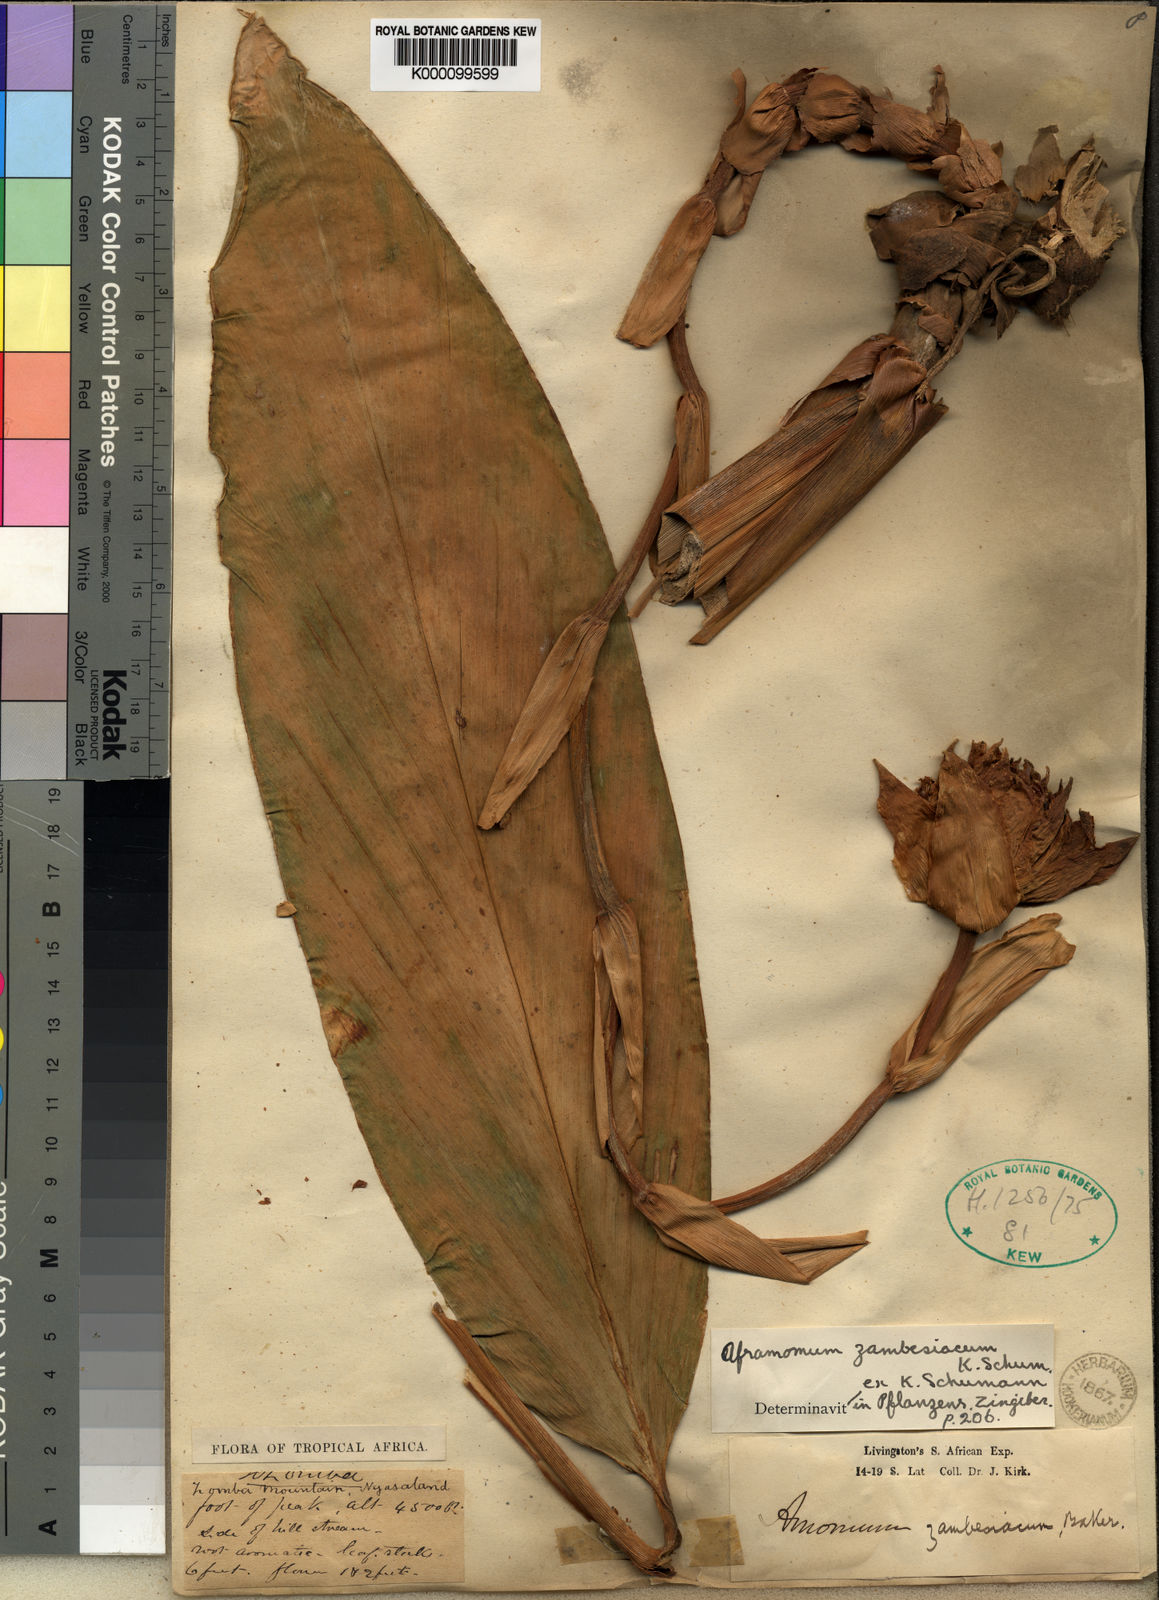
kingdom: Plantae
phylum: Tracheophyta
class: Liliopsida
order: Zingiberales
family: Zingiberaceae
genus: Aframomum
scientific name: Aframomum zambesiacum
